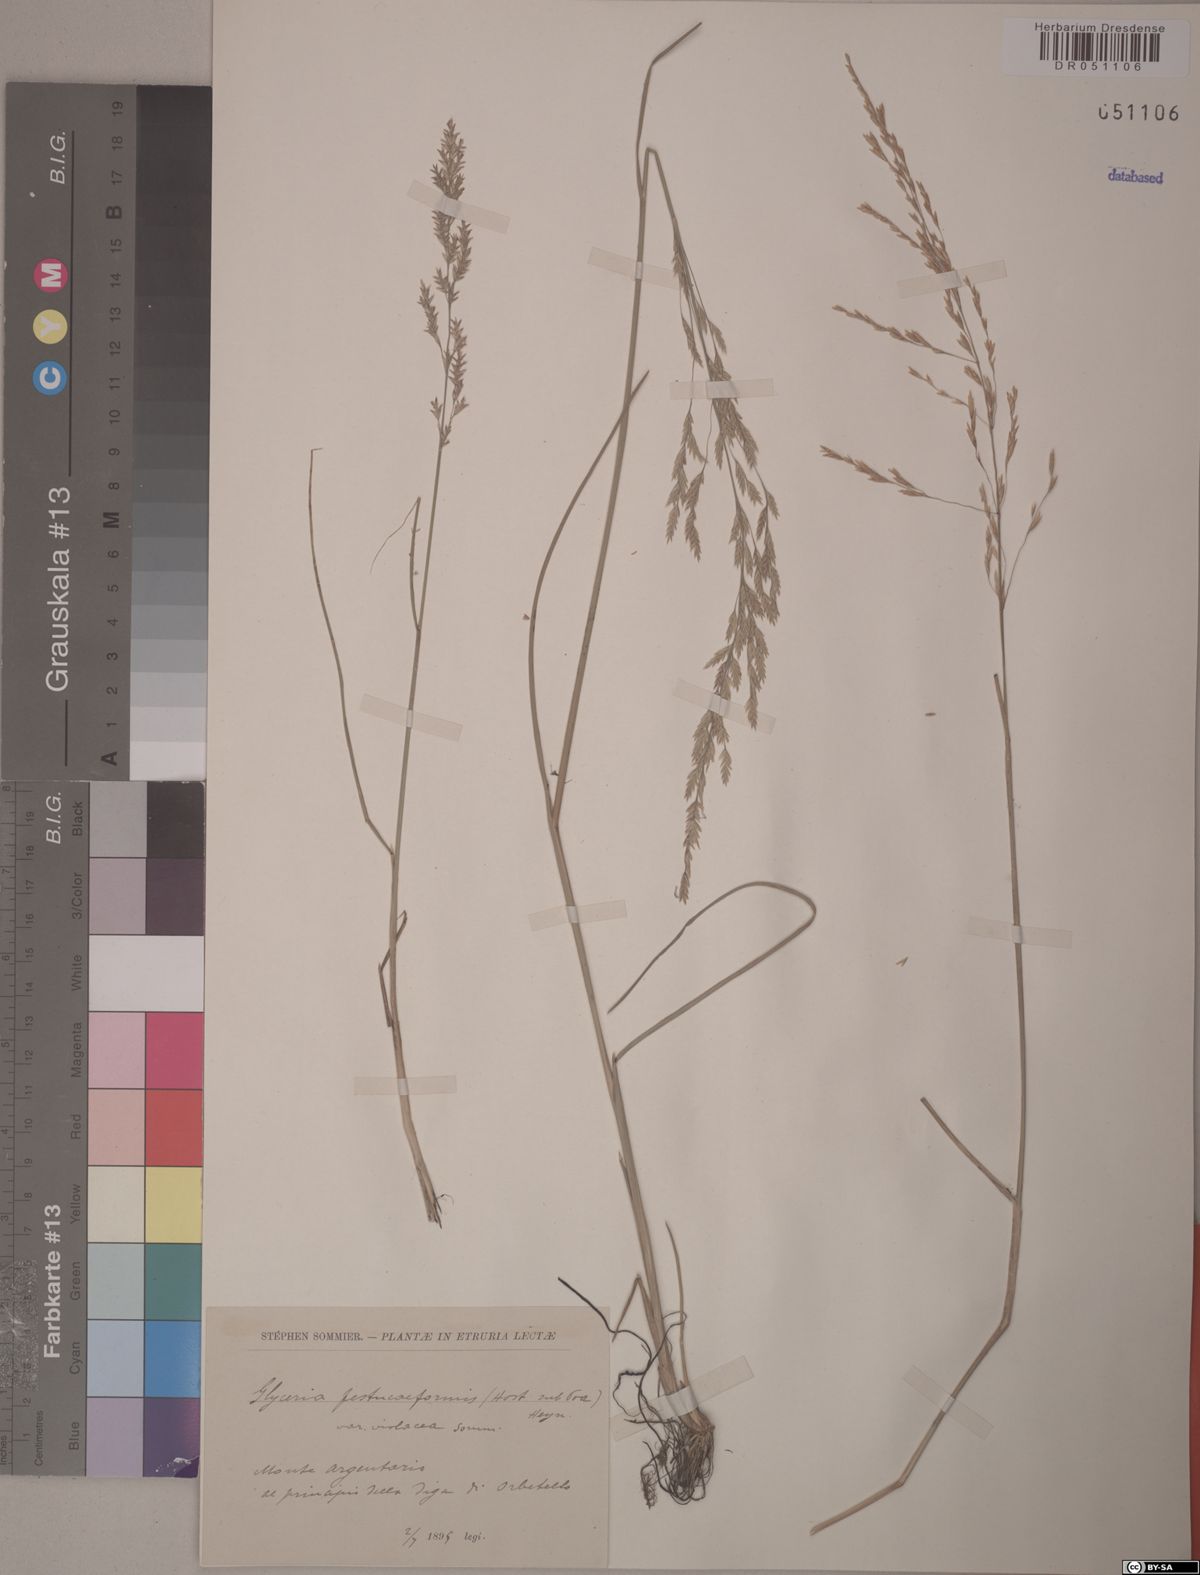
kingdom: Plantae
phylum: Tracheophyta
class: Liliopsida
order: Poales
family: Poaceae
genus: Glyceria
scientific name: Glyceria festuciformis
